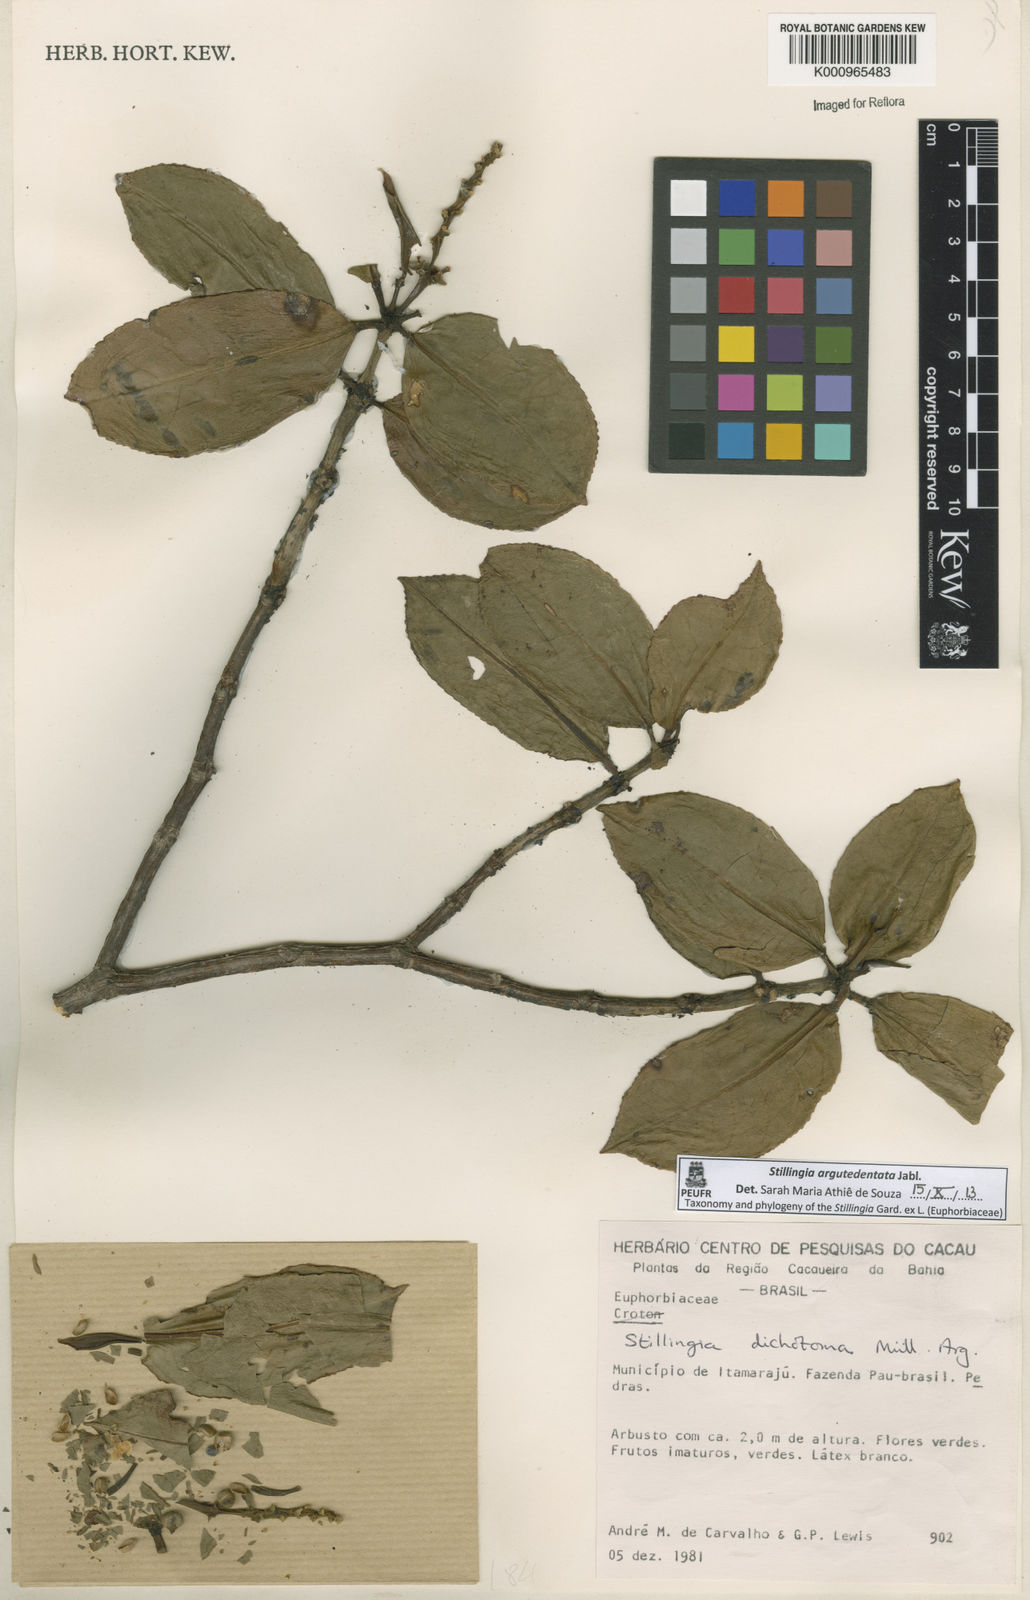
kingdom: Plantae
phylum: Tracheophyta
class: Magnoliopsida
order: Malpighiales
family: Euphorbiaceae
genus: Stillingia
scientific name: Stillingia argutedentata
